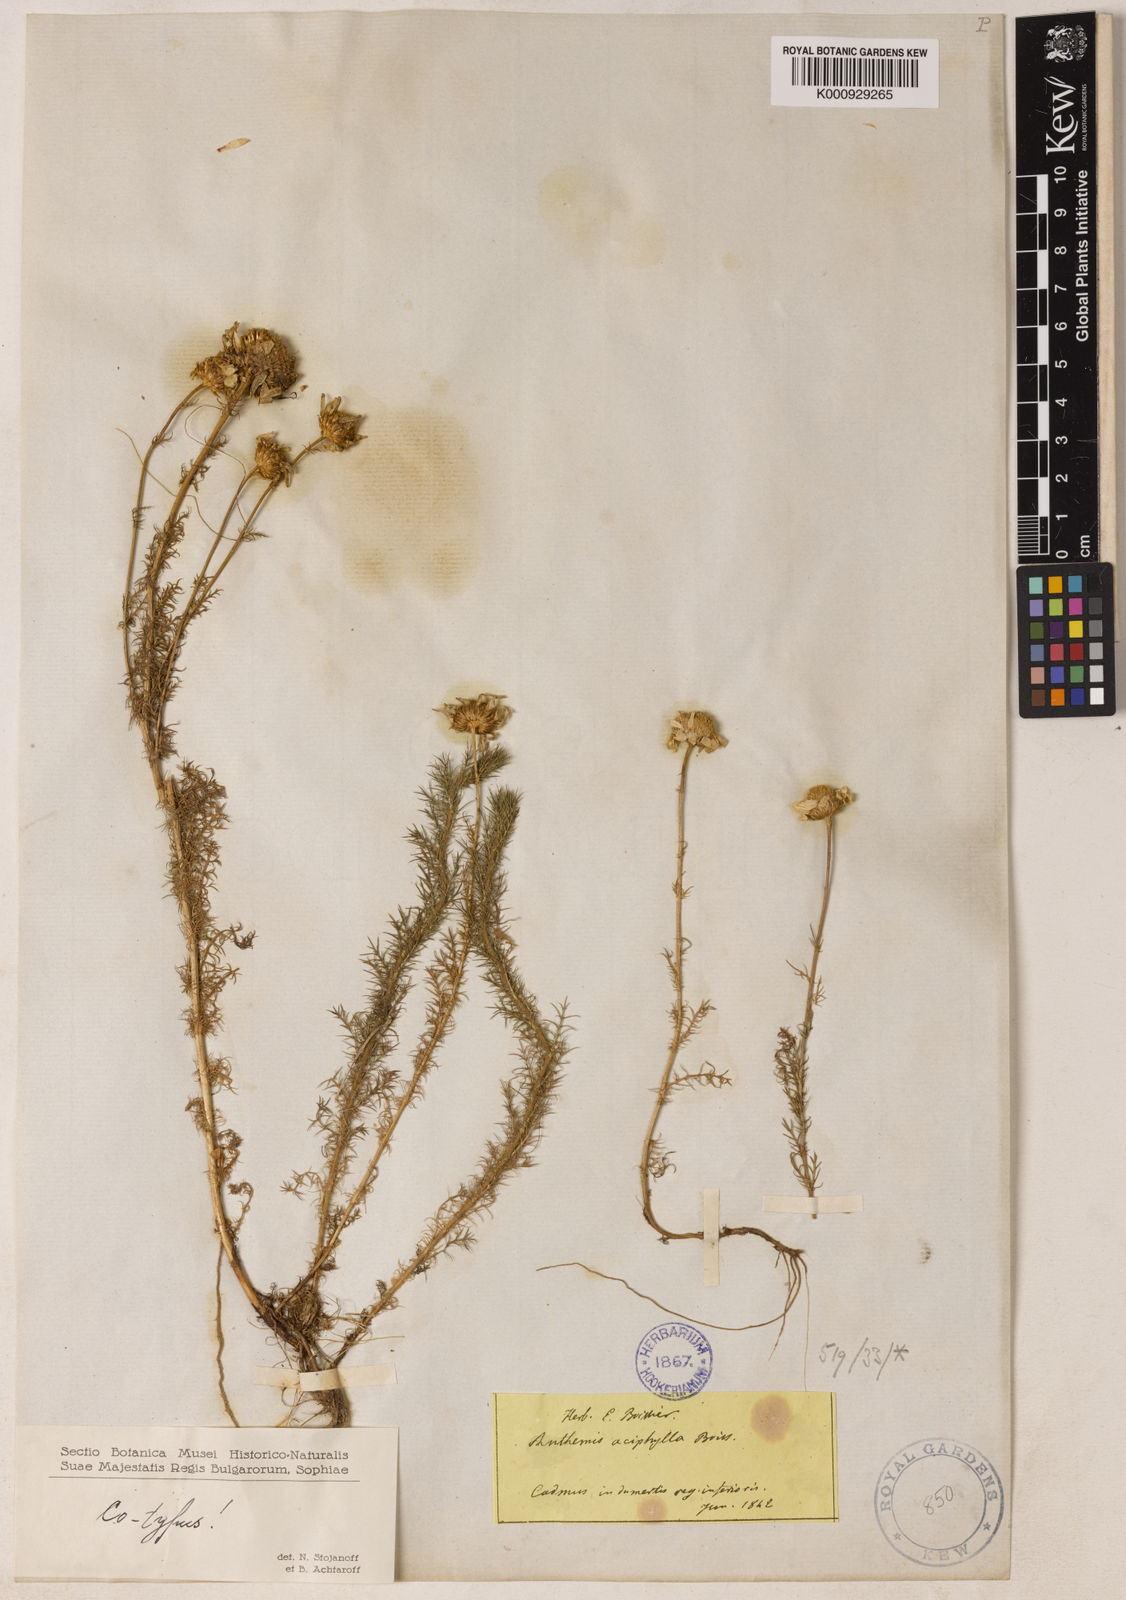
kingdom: Plantae
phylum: Tracheophyta
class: Magnoliopsida
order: Asterales
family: Asteraceae
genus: Anthemis
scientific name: Anthemis aciphylla
